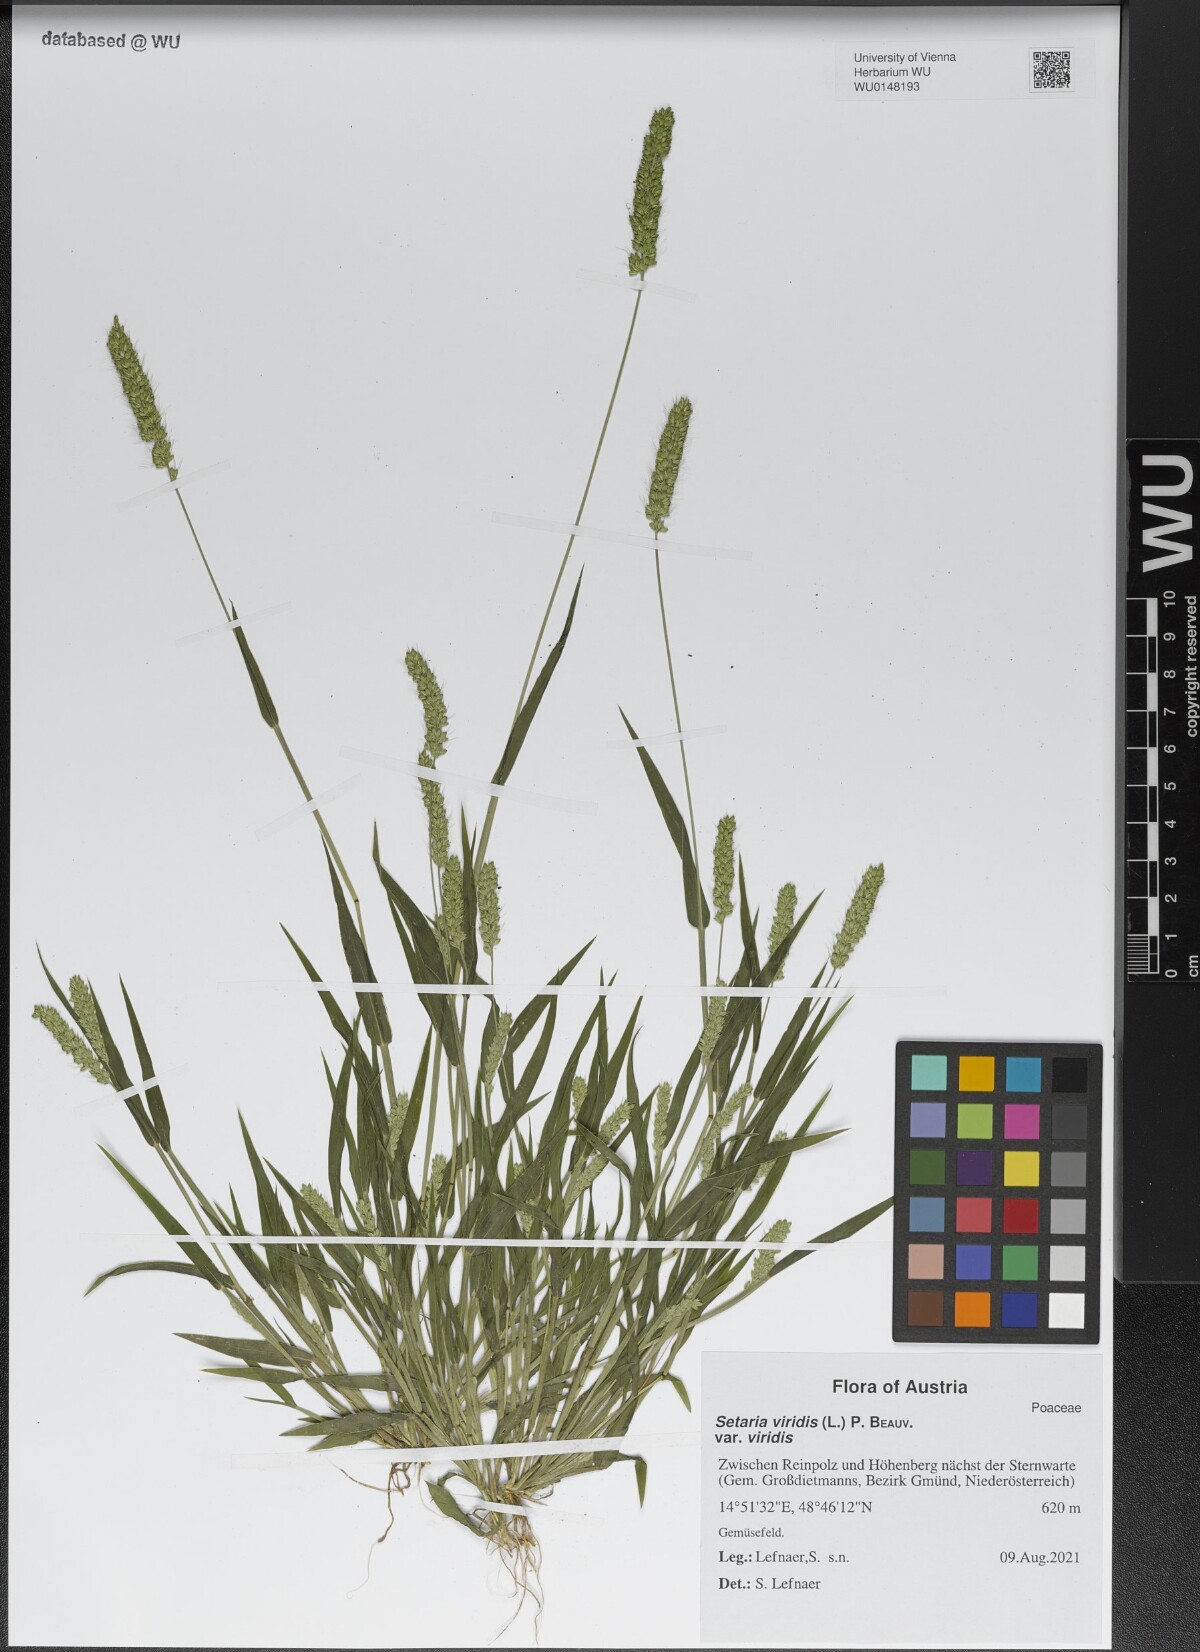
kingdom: Plantae
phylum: Tracheophyta
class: Liliopsida
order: Poales
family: Poaceae
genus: Setaria
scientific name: Setaria viridis
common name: Green bristlegrass
